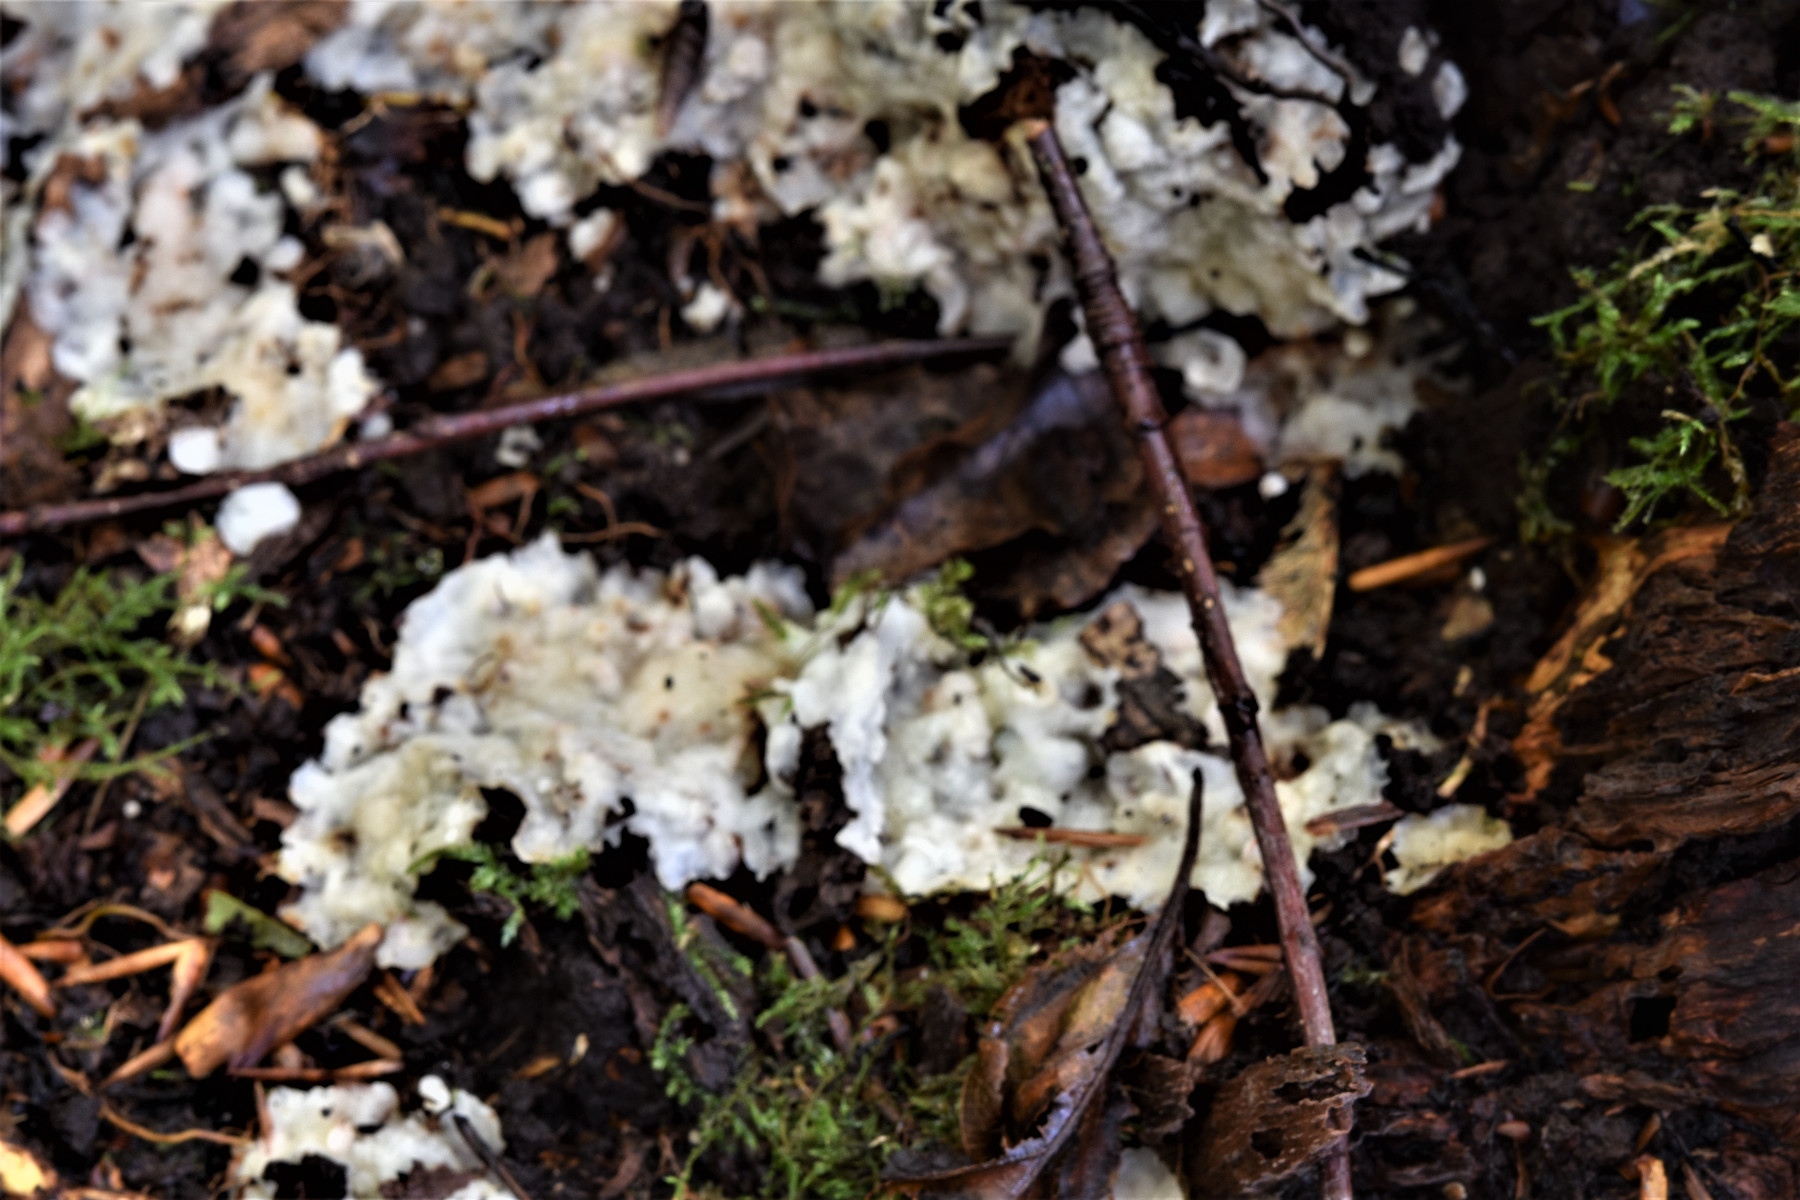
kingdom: Fungi
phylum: Basidiomycota
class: Agaricomycetes
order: Polyporales
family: Meruliaceae
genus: Physisporinus
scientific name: Physisporinus vitreus
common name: mastesvamp
